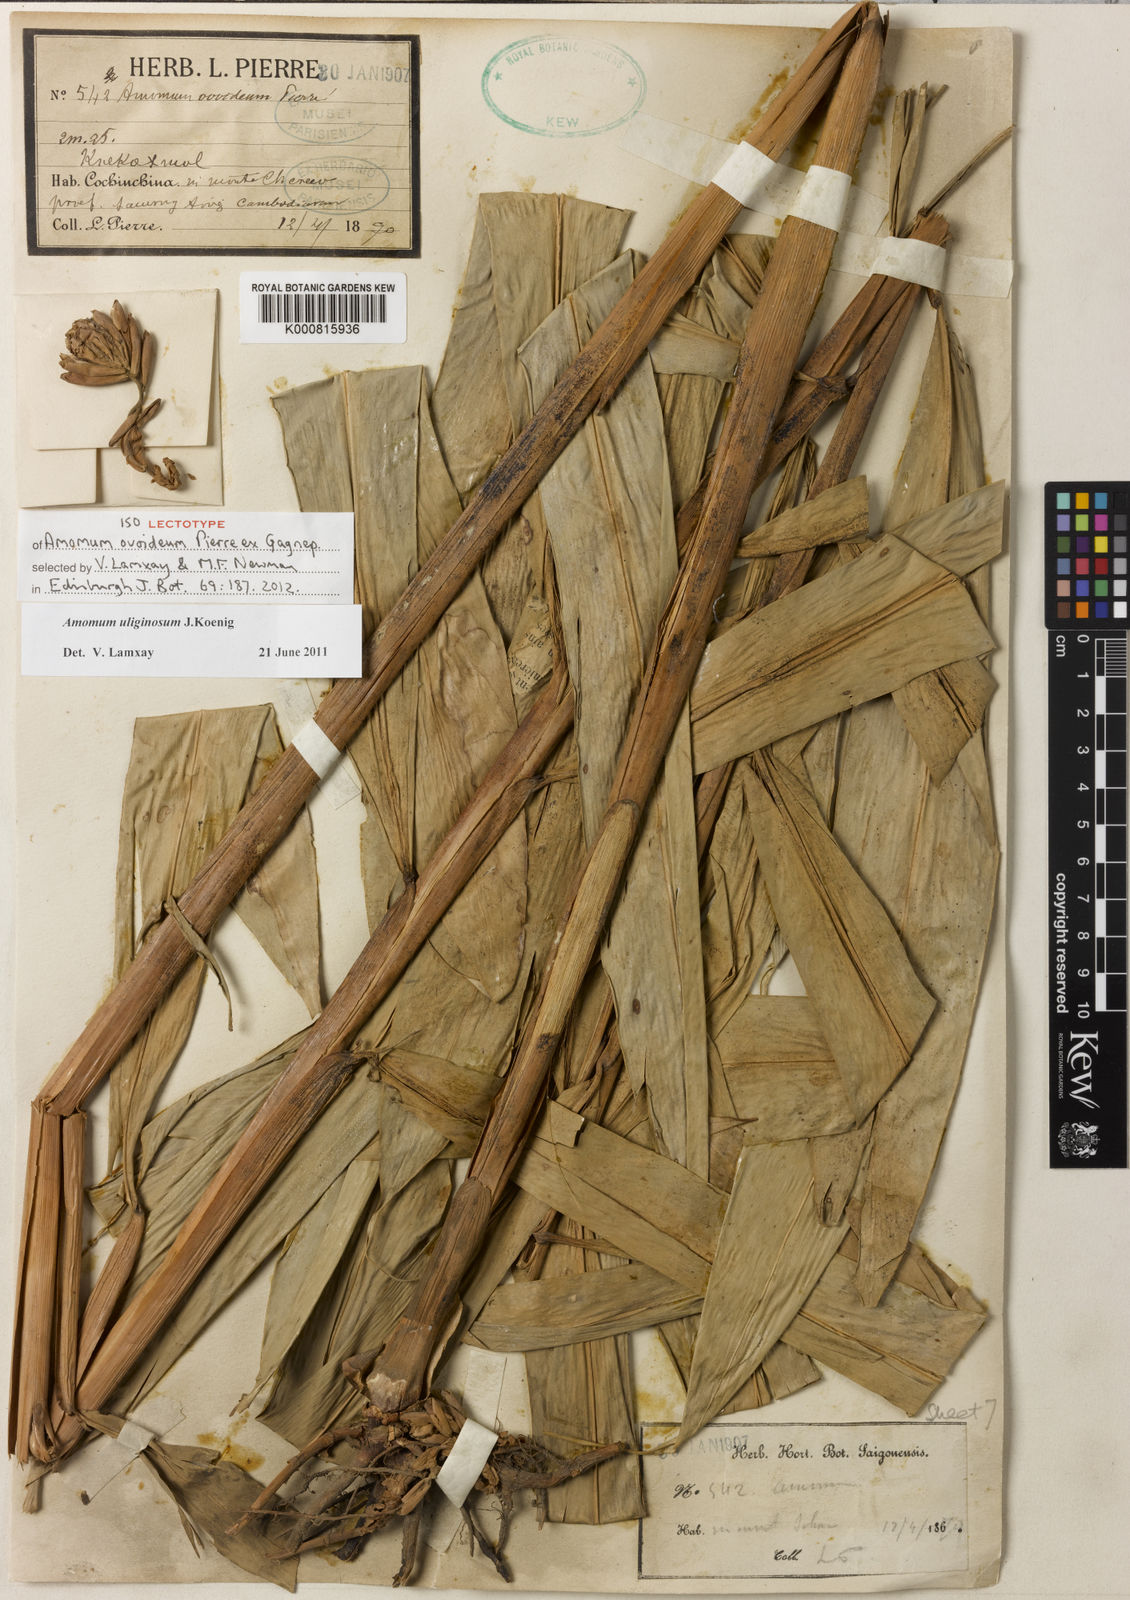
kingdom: Plantae
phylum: Tracheophyta
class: Liliopsida
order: Zingiberales
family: Zingiberaceae
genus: Wurfbainia
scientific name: Wurfbainia uliginosa
